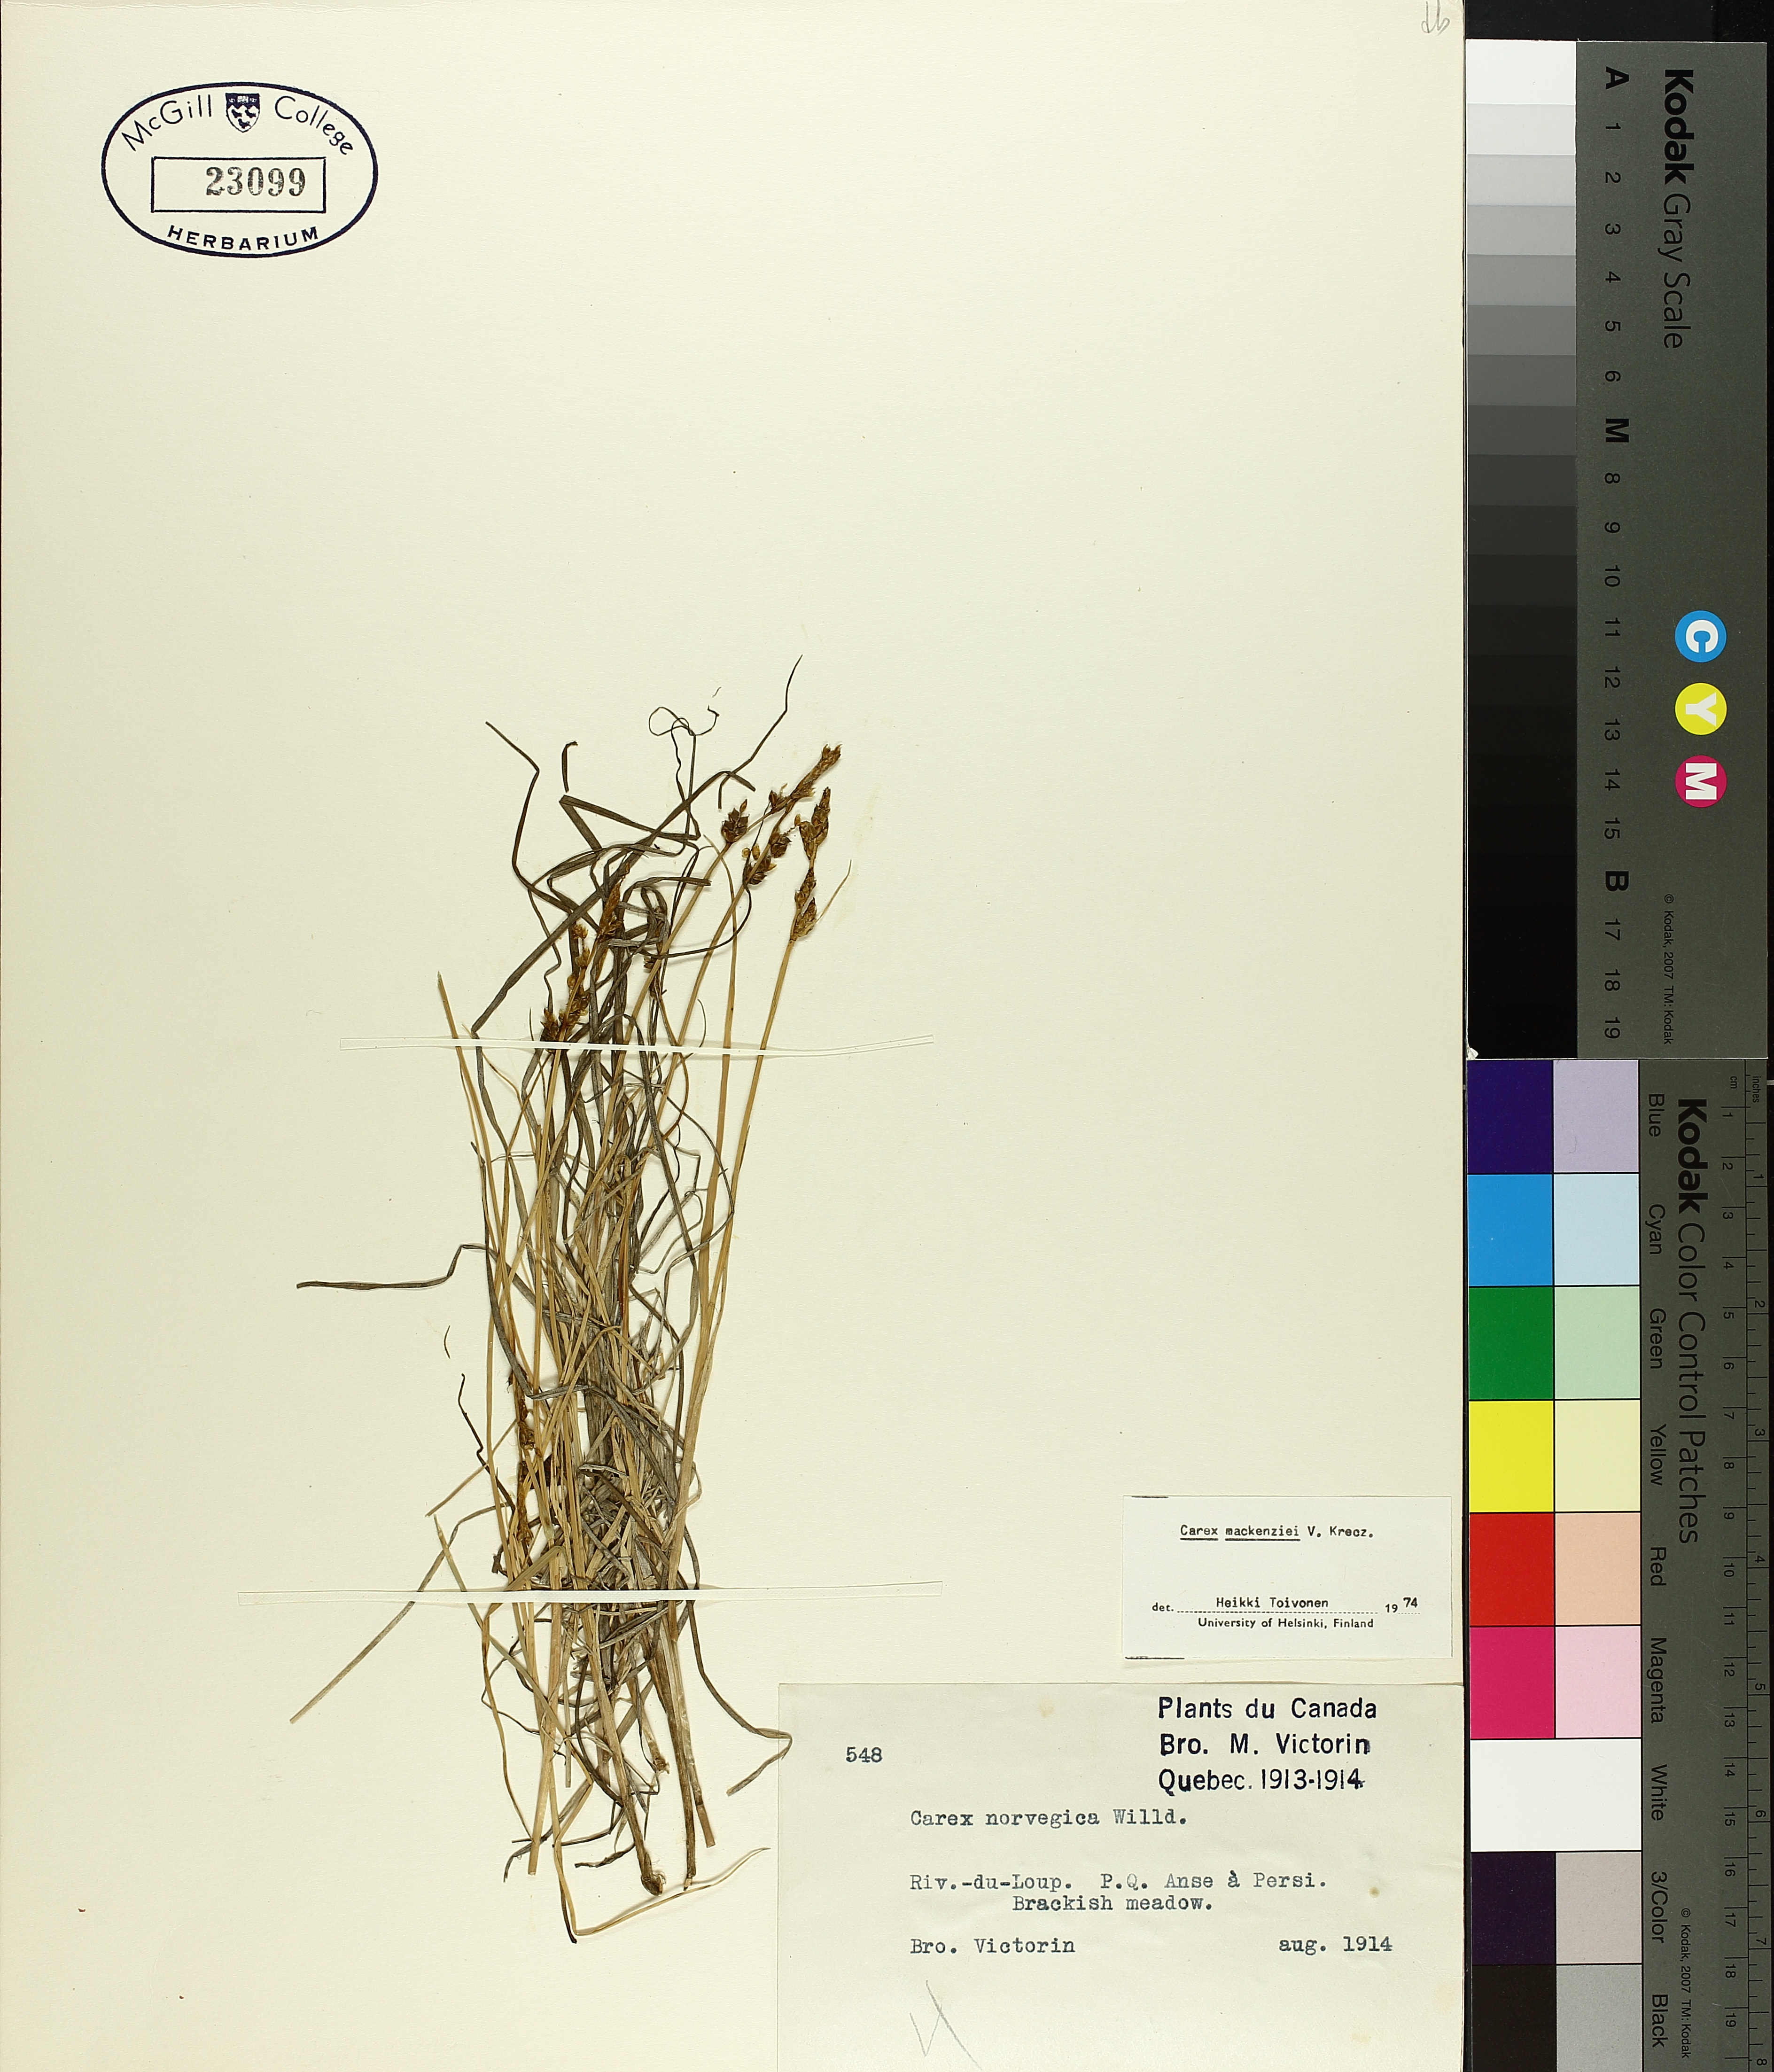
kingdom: Plantae
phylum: Tracheophyta
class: Liliopsida
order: Poales
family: Cyperaceae
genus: Carex
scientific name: Carex mackenziei
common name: Mackenzie's sedge
